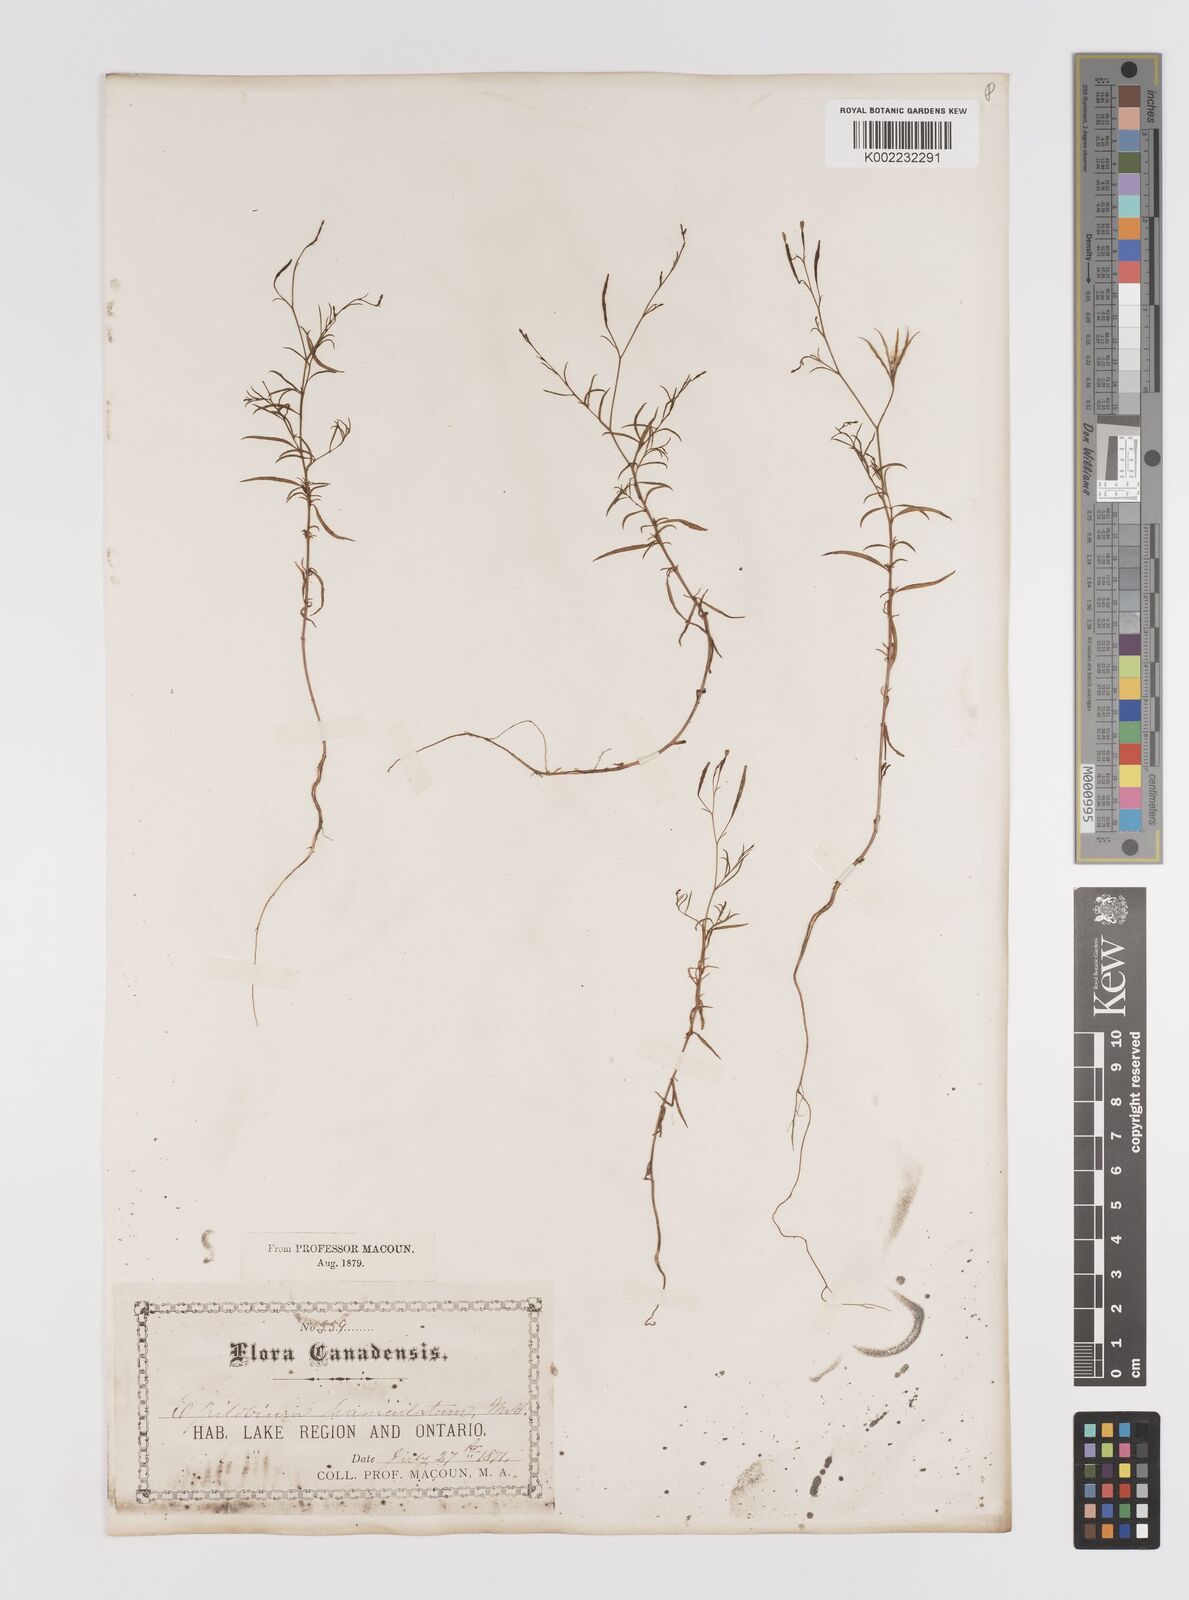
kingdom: Plantae
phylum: Tracheophyta
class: Magnoliopsida
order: Myrtales
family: Onagraceae
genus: Epilobium
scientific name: Epilobium
